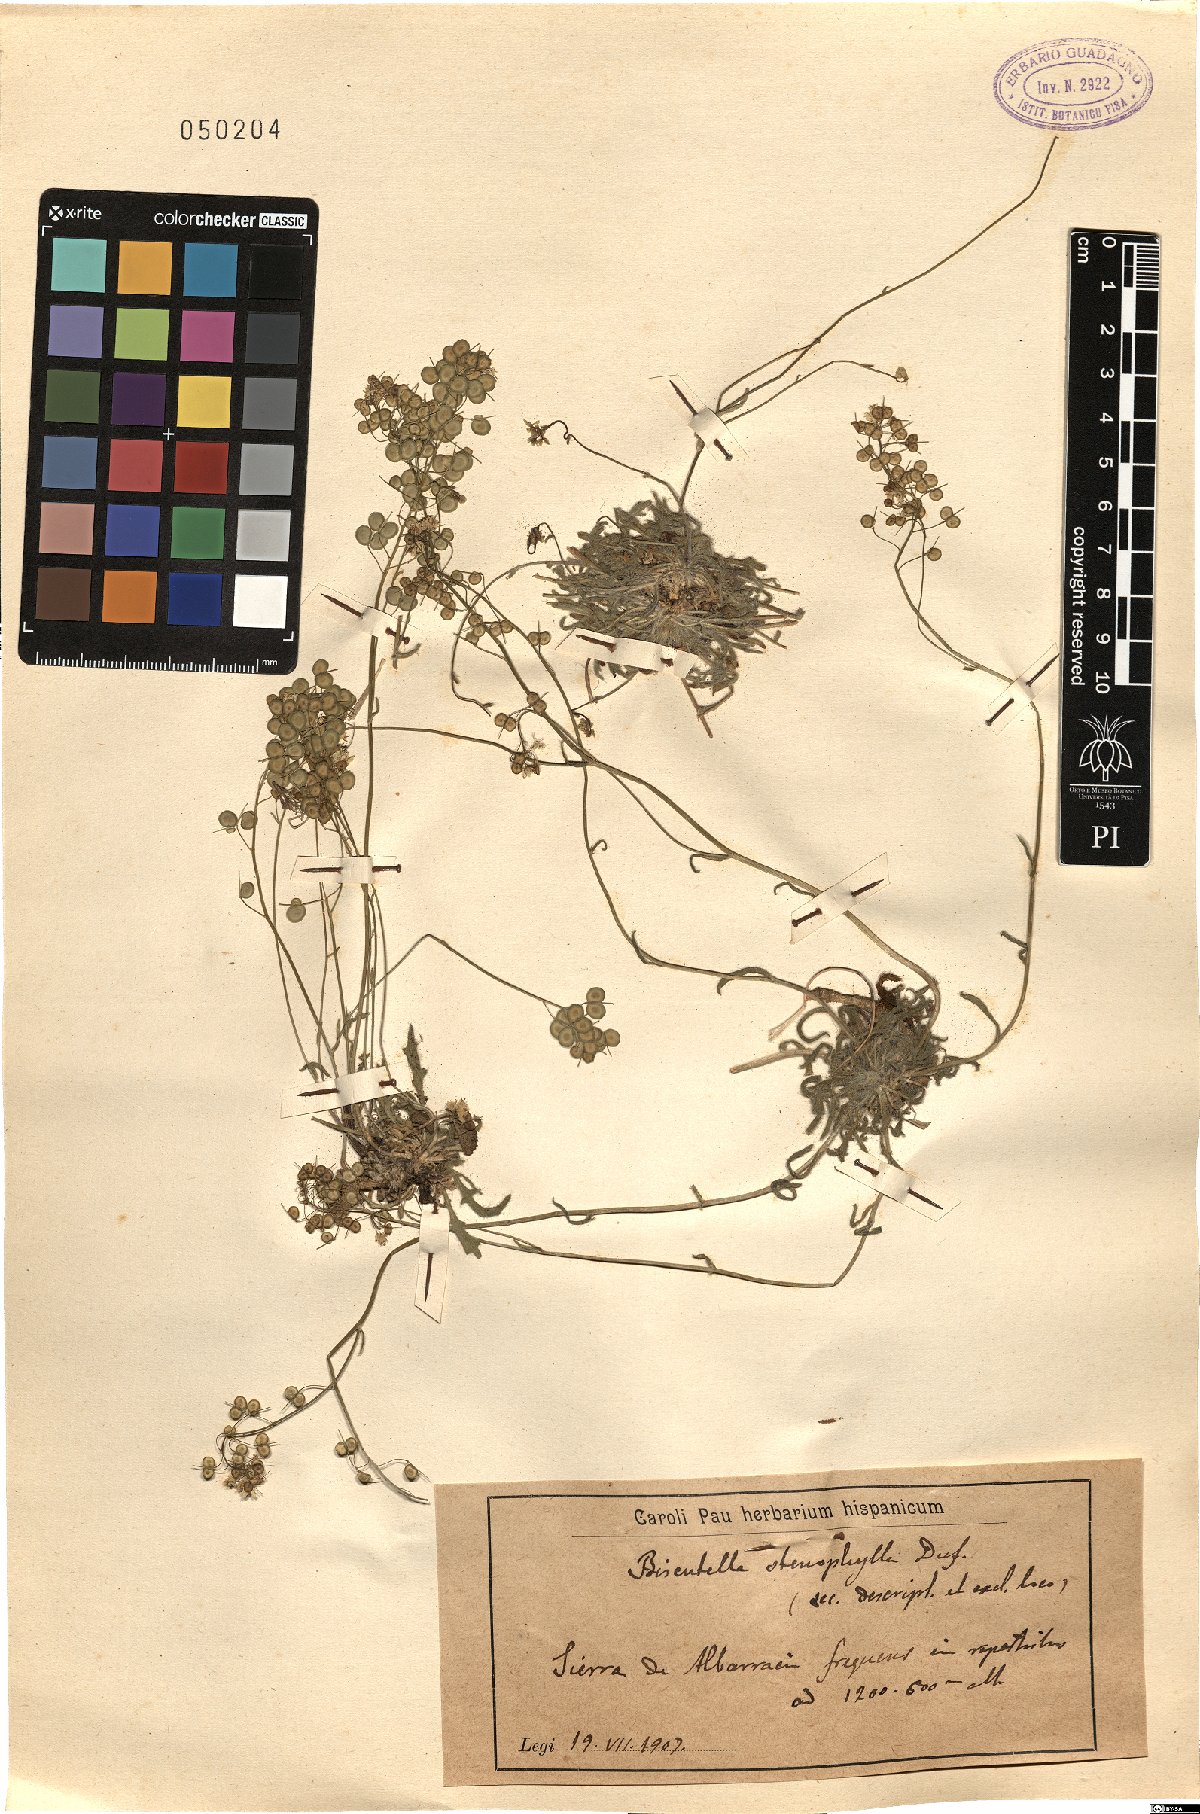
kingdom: Plantae
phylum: Tracheophyta
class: Magnoliopsida
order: Brassicales
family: Brassicaceae
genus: Biscutella
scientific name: Biscutella valentina
